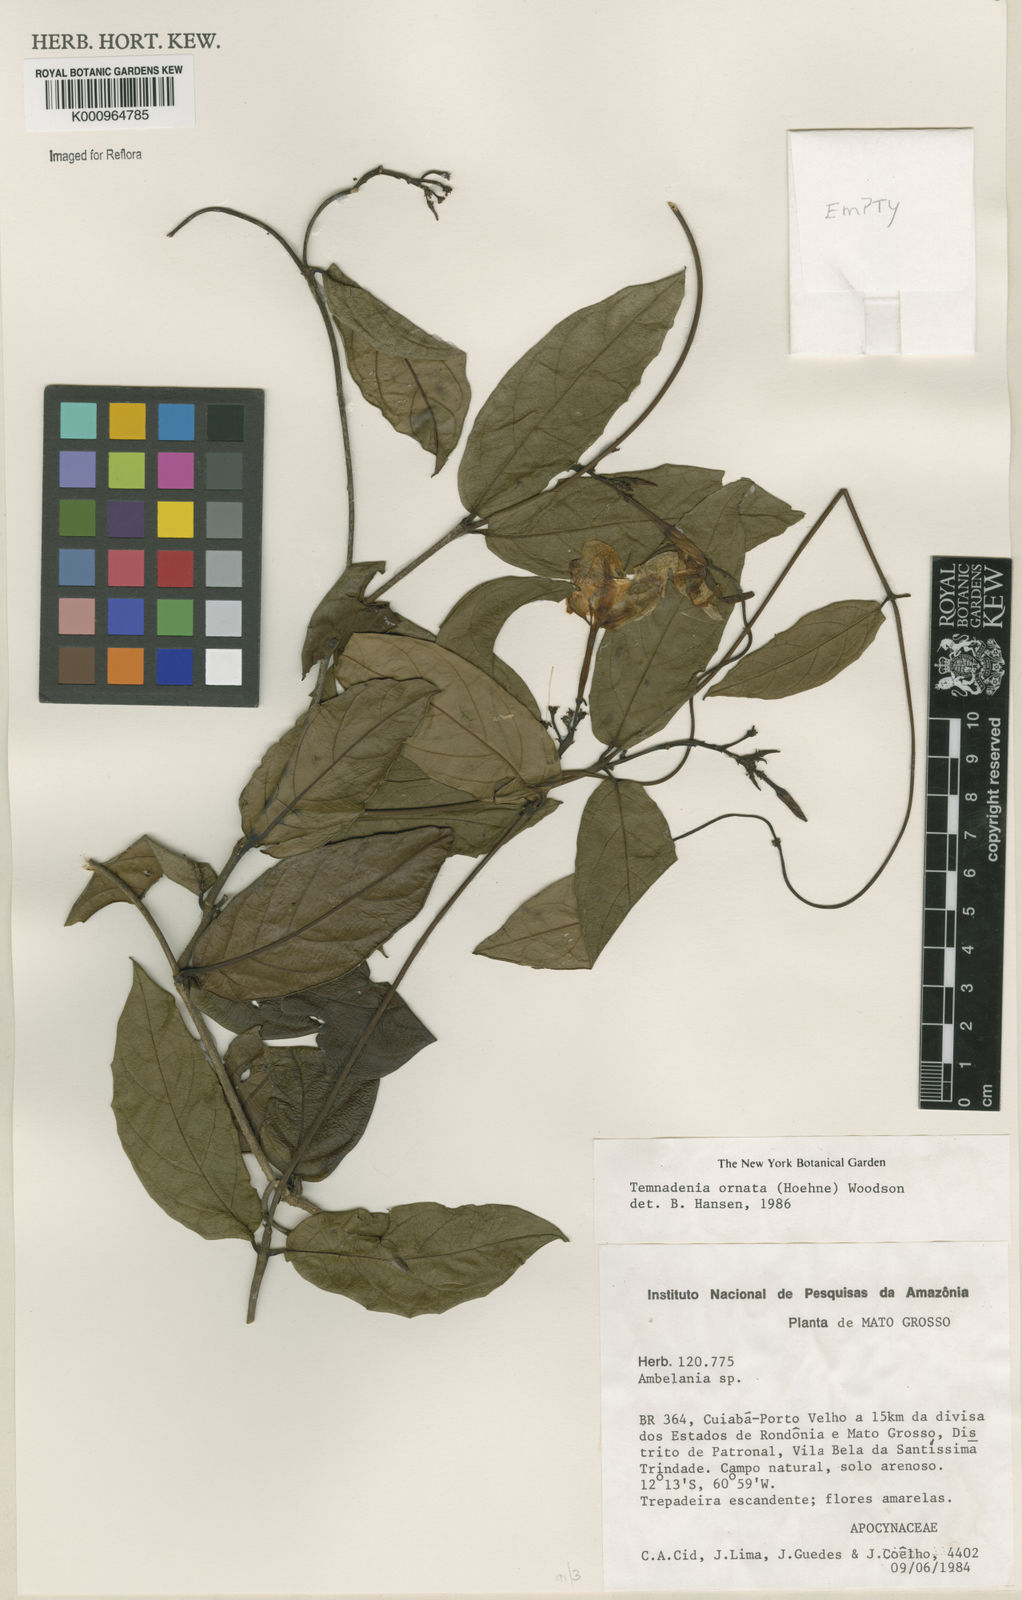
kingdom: Plantae
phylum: Tracheophyta
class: Magnoliopsida
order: Gentianales
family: Apocynaceae
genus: Prestonia
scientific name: Prestonia ornata
